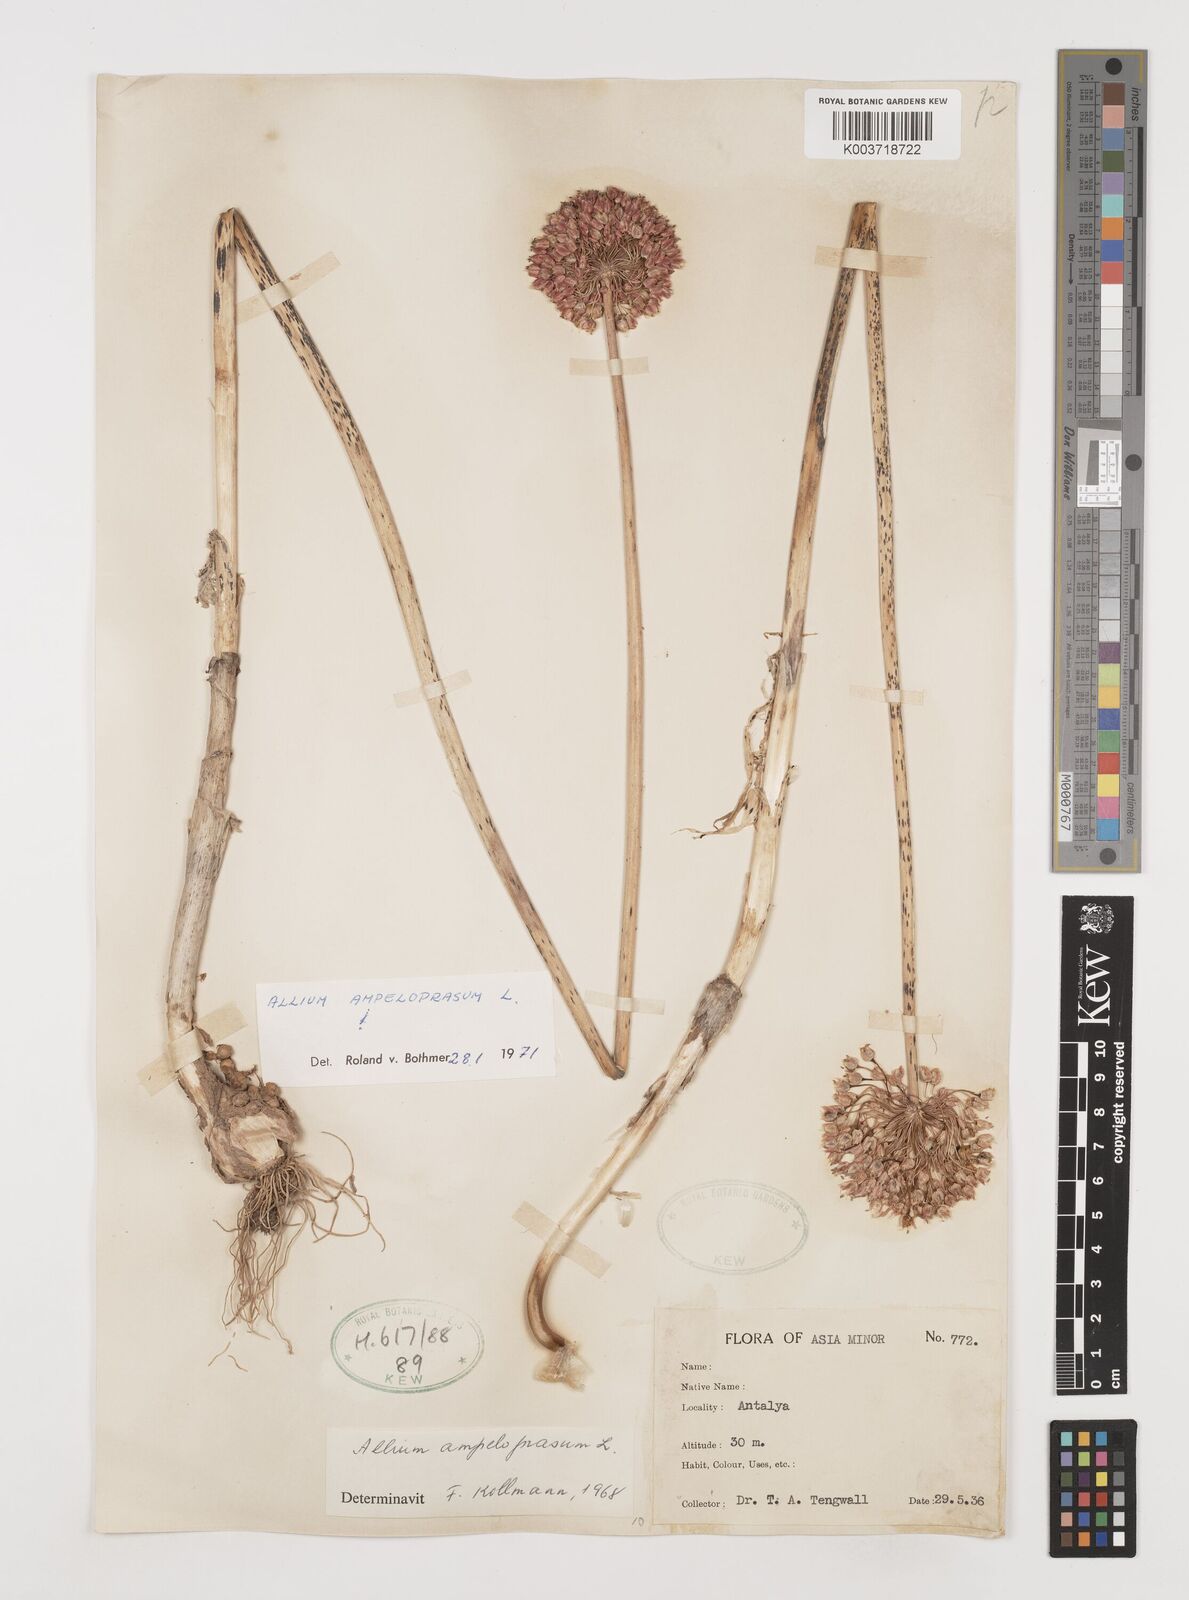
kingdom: Plantae
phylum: Tracheophyta
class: Liliopsida
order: Asparagales
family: Amaryllidaceae
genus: Allium
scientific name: Allium ampeloprasum
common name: Wild leek
